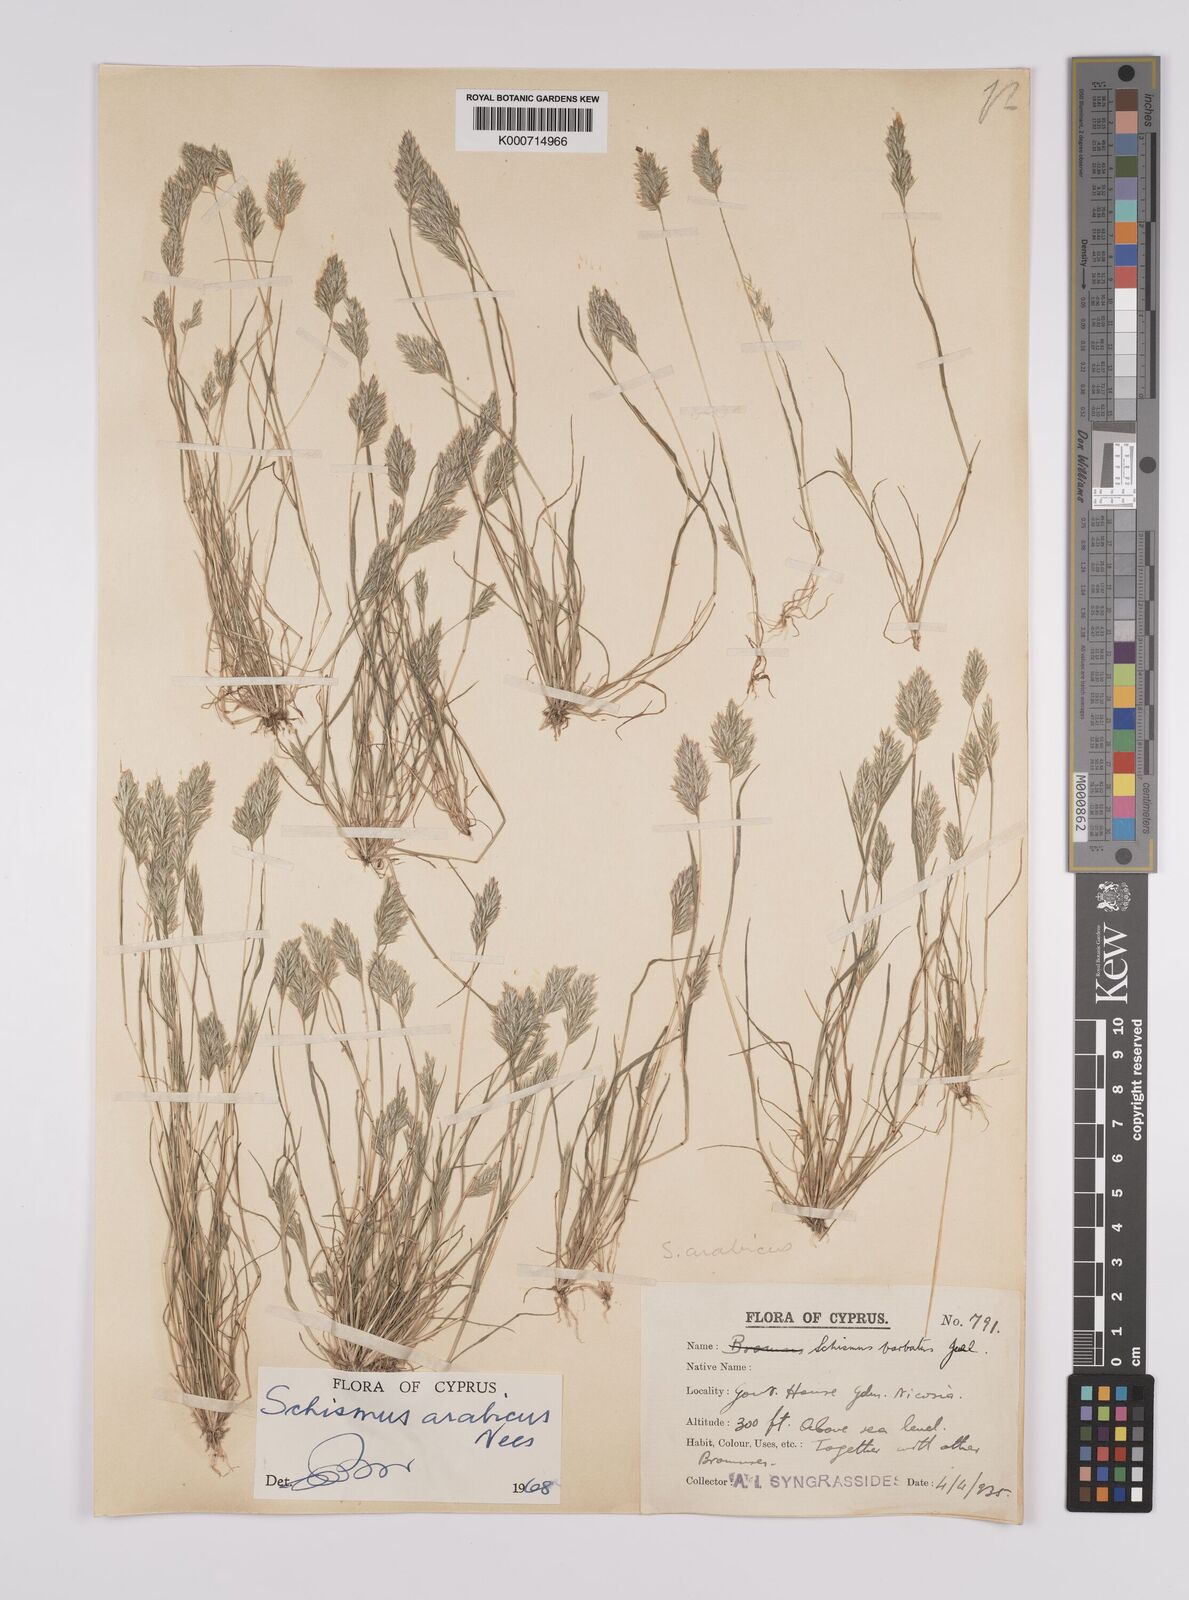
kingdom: Plantae
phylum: Tracheophyta
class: Liliopsida
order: Poales
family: Poaceae
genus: Schismus
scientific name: Schismus arabicus
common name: Arabian schismus
